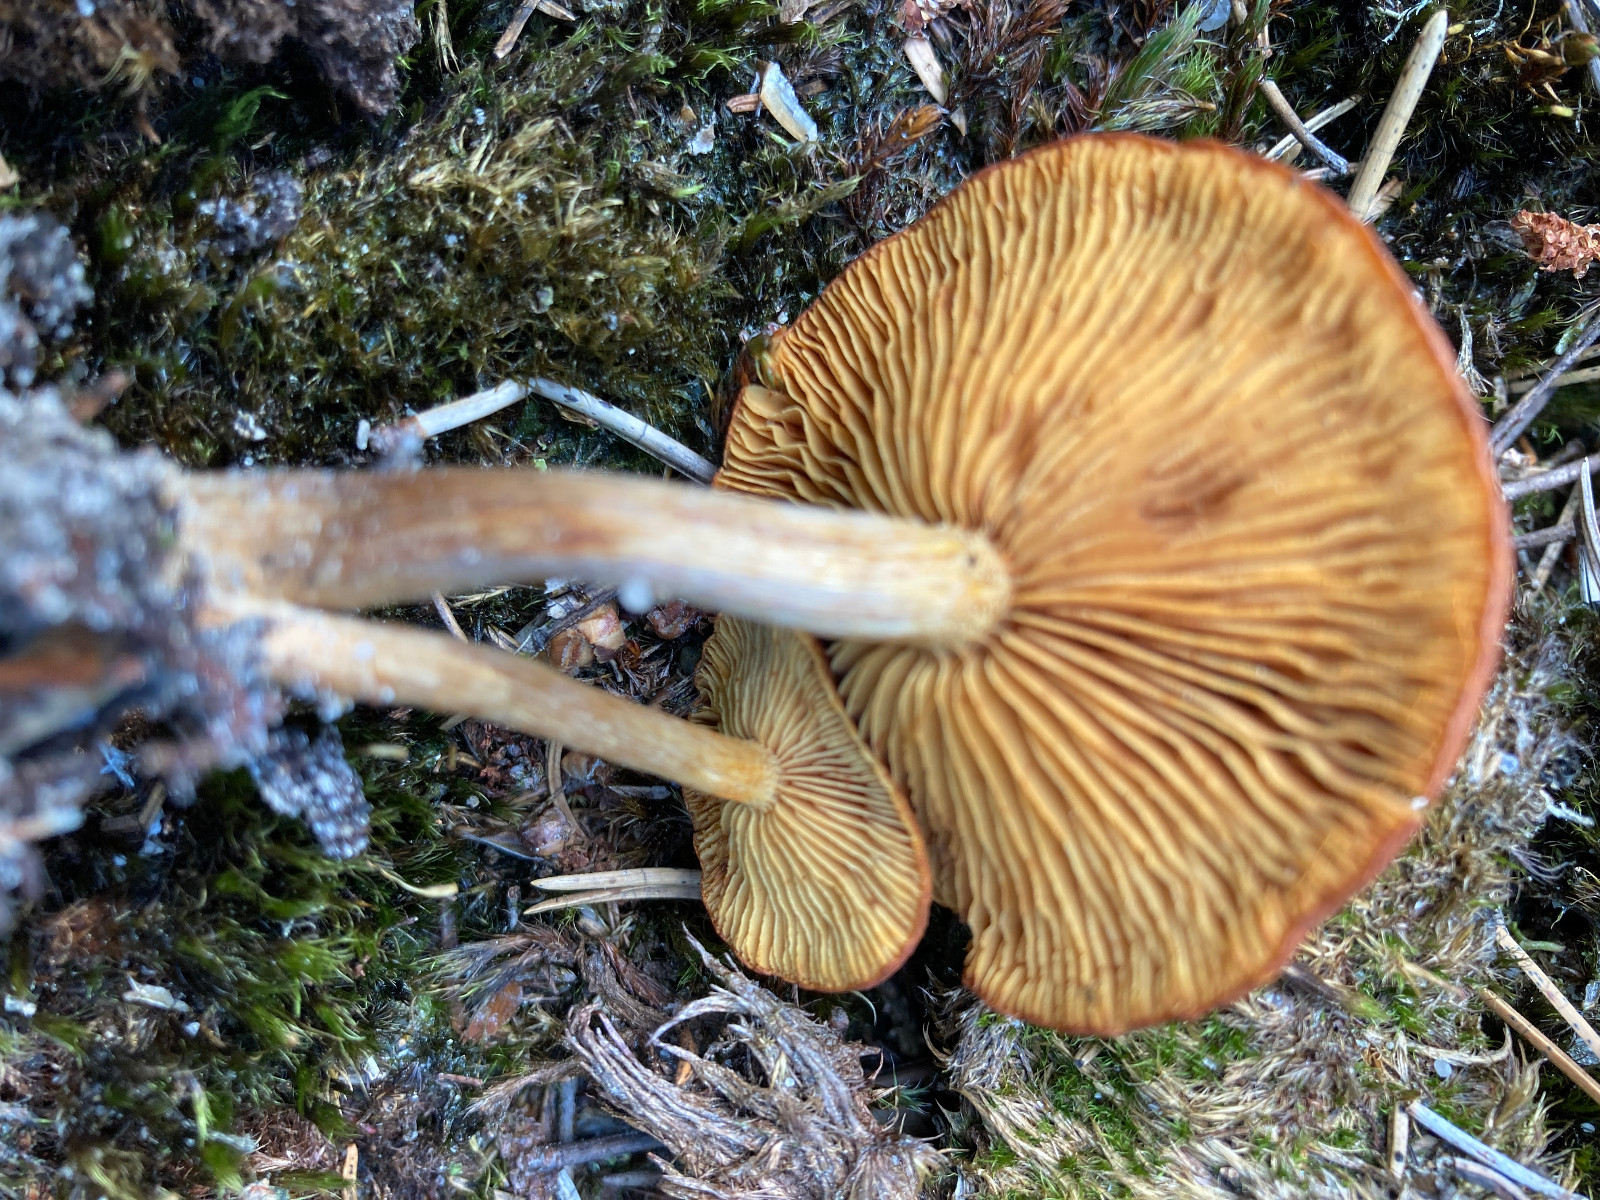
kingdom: Fungi
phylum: Basidiomycota
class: Agaricomycetes
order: Agaricales
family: Hymenogastraceae
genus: Gymnopilus
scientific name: Gymnopilus decipiens
